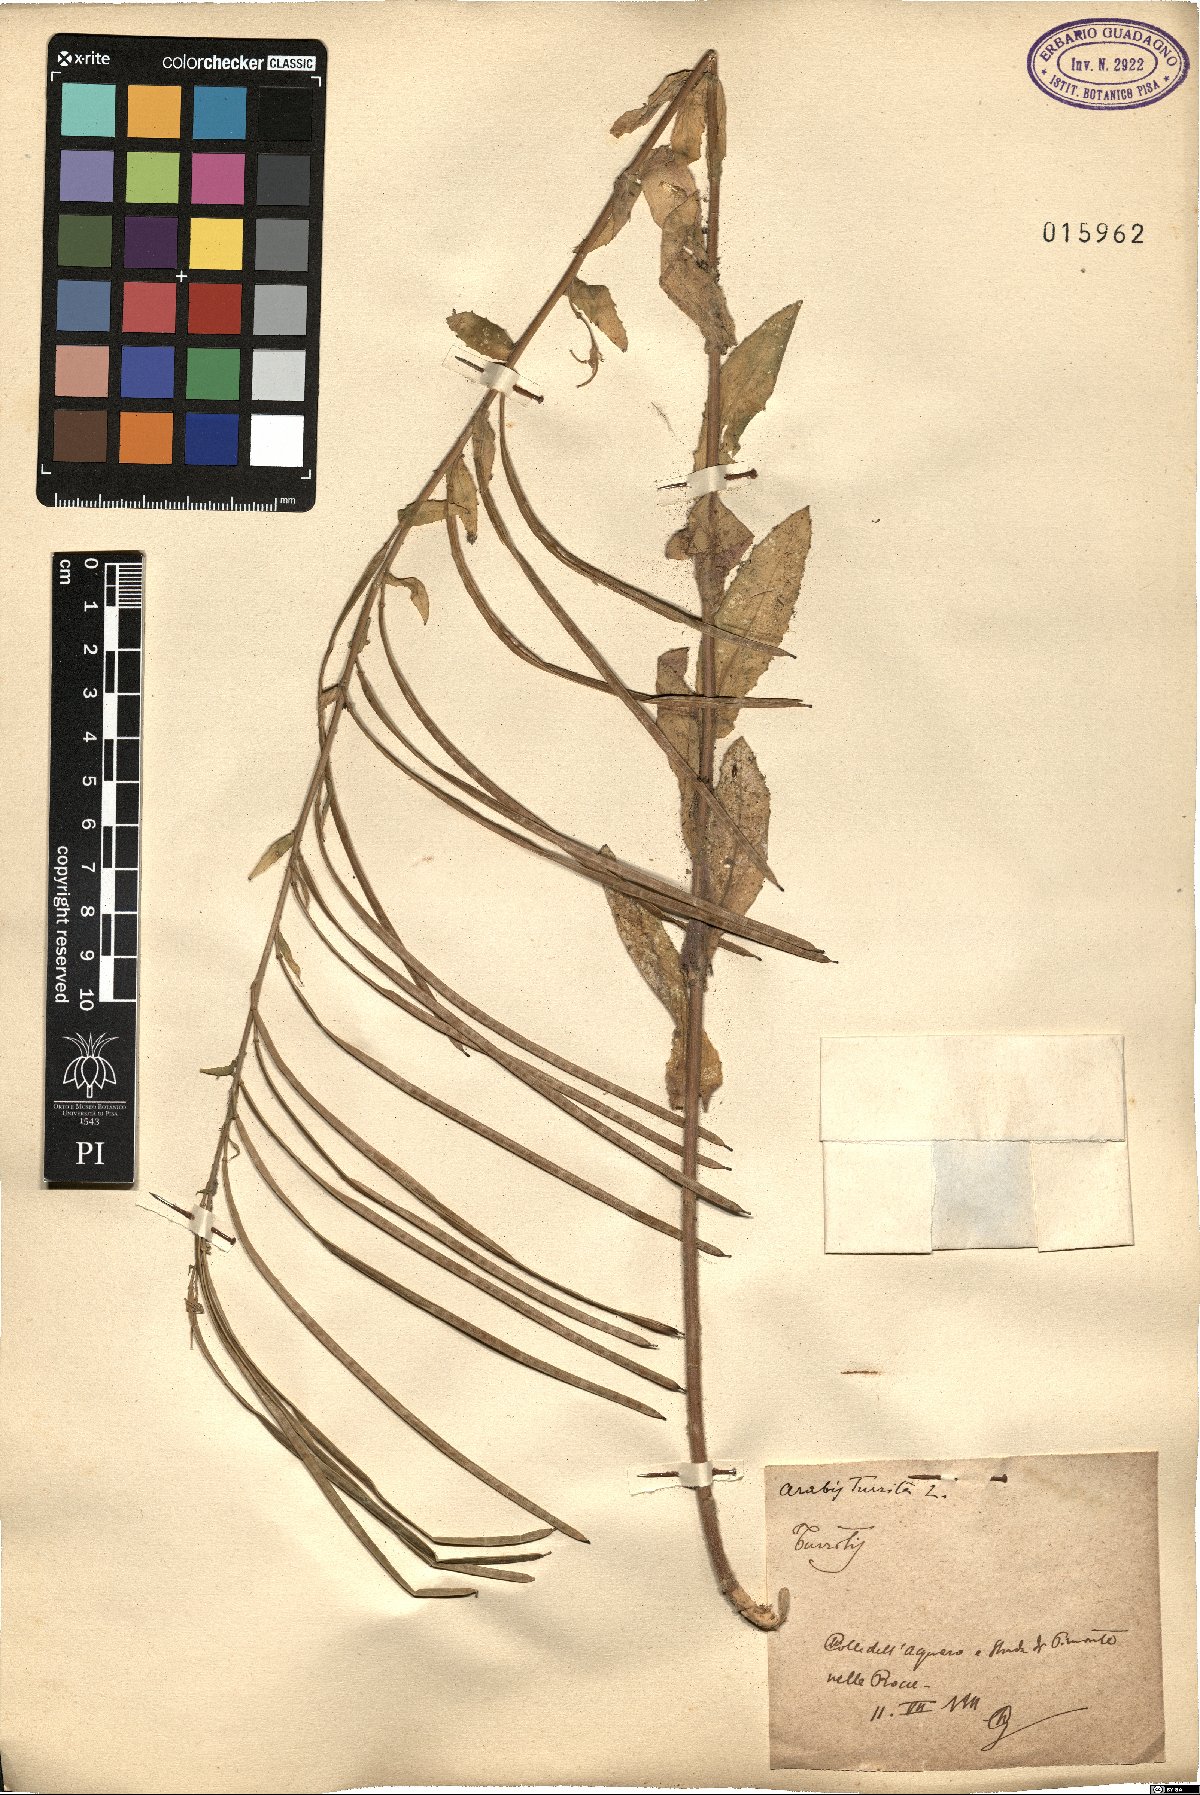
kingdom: Plantae
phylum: Tracheophyta
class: Magnoliopsida
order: Brassicales
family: Brassicaceae
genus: Pseudoturritis
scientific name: Pseudoturritis turrita
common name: Tower cress
